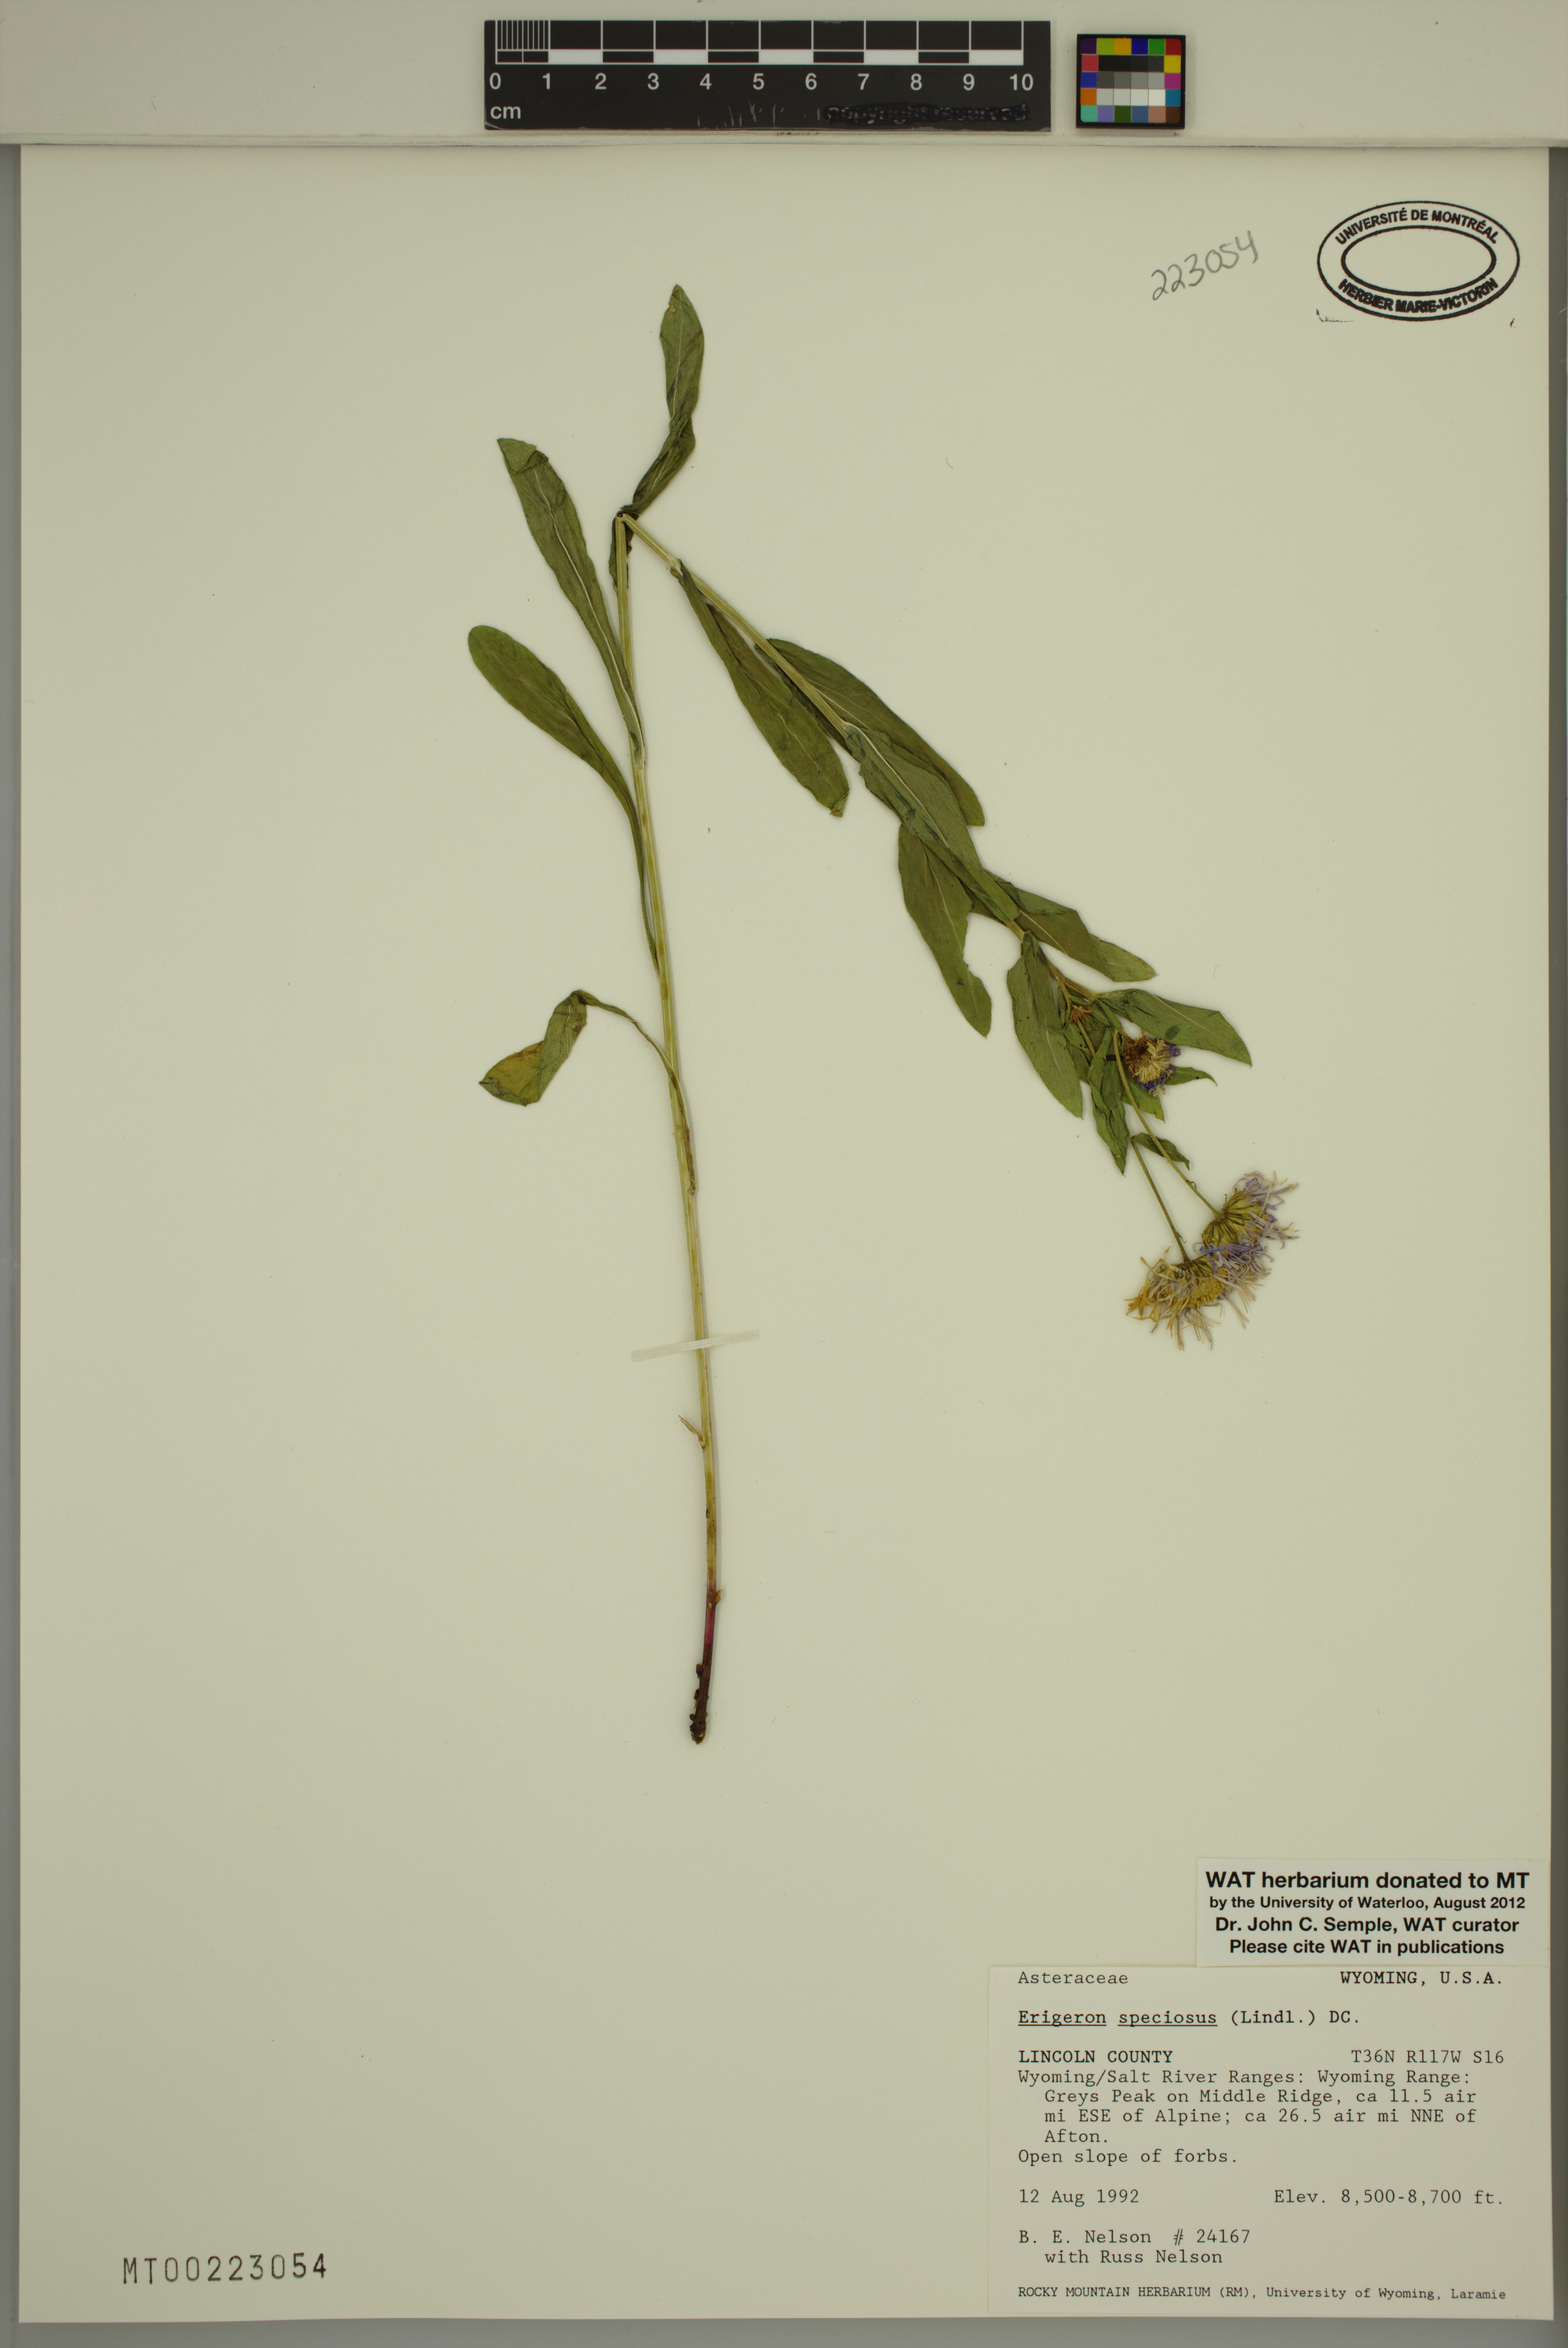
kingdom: Plantae
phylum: Tracheophyta
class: Magnoliopsida
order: Asterales
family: Asteraceae
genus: Erigeron
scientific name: Erigeron speciosus
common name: Aspen fleabane
